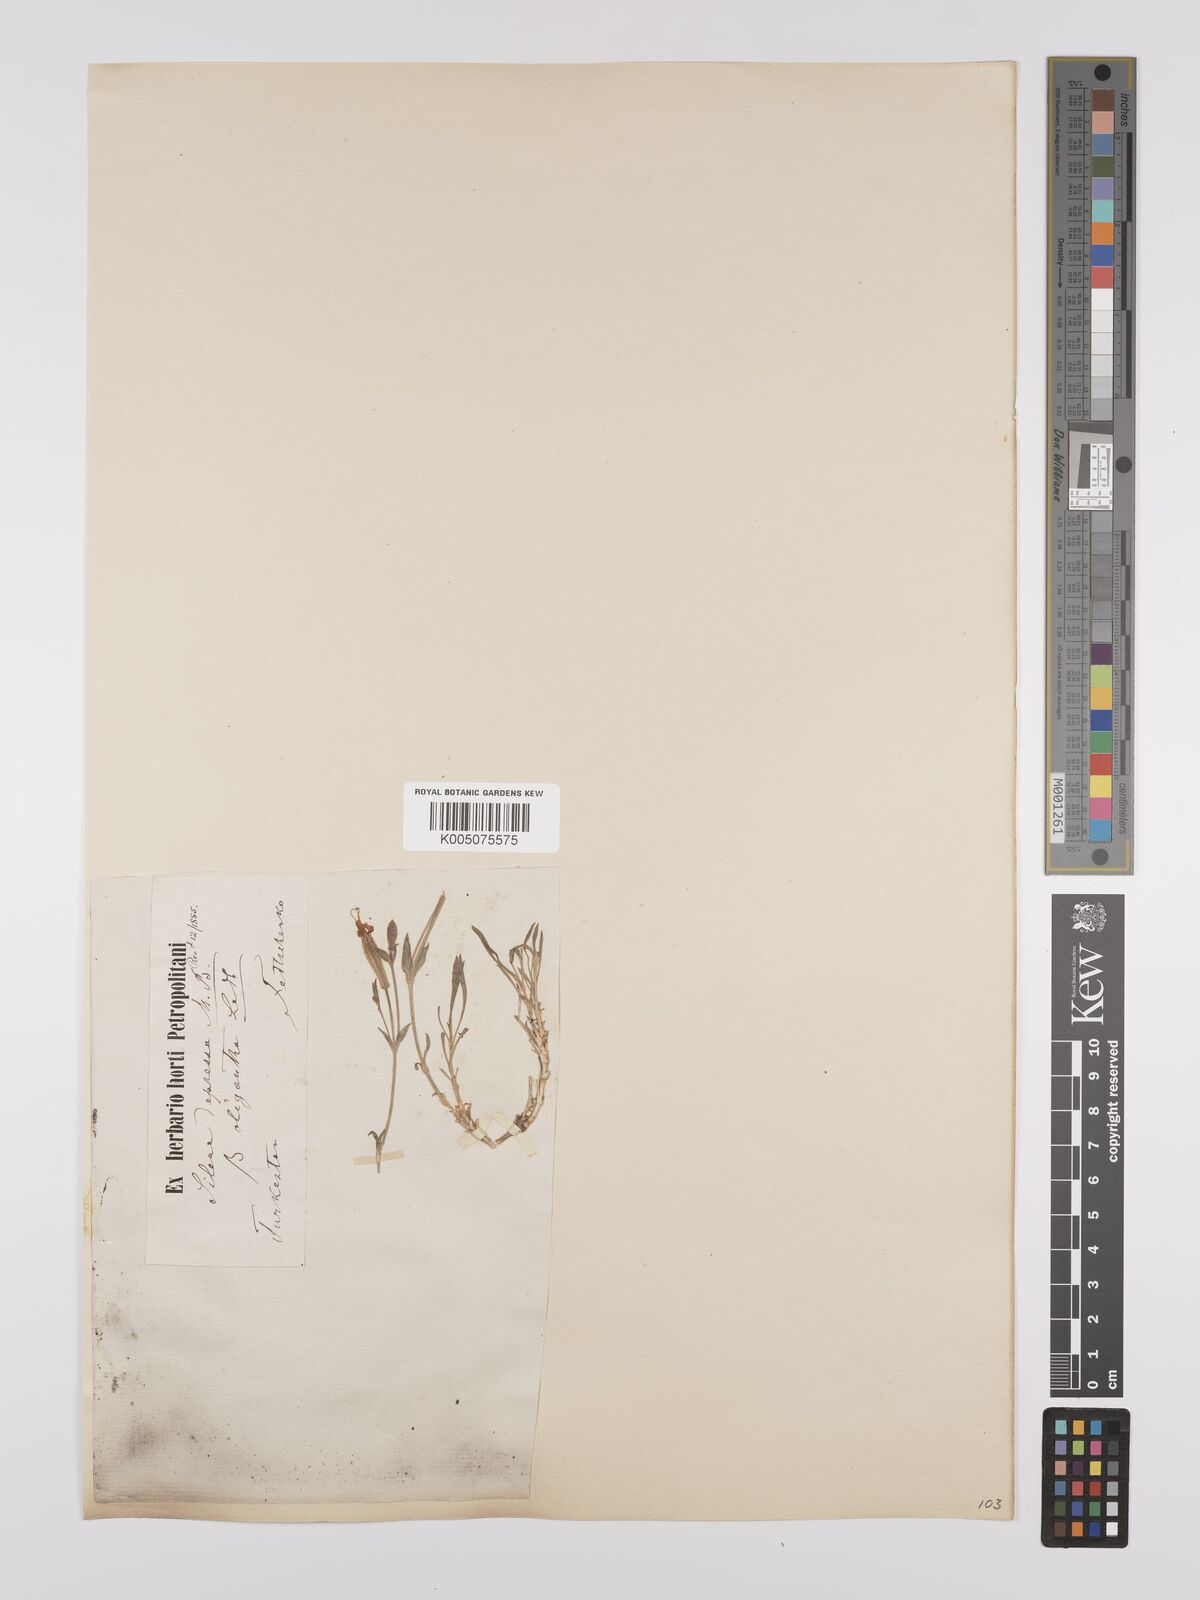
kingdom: Plantae
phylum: Tracheophyta
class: Magnoliopsida
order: Caryophyllales
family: Caryophyllaceae
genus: Silene
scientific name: Silene
